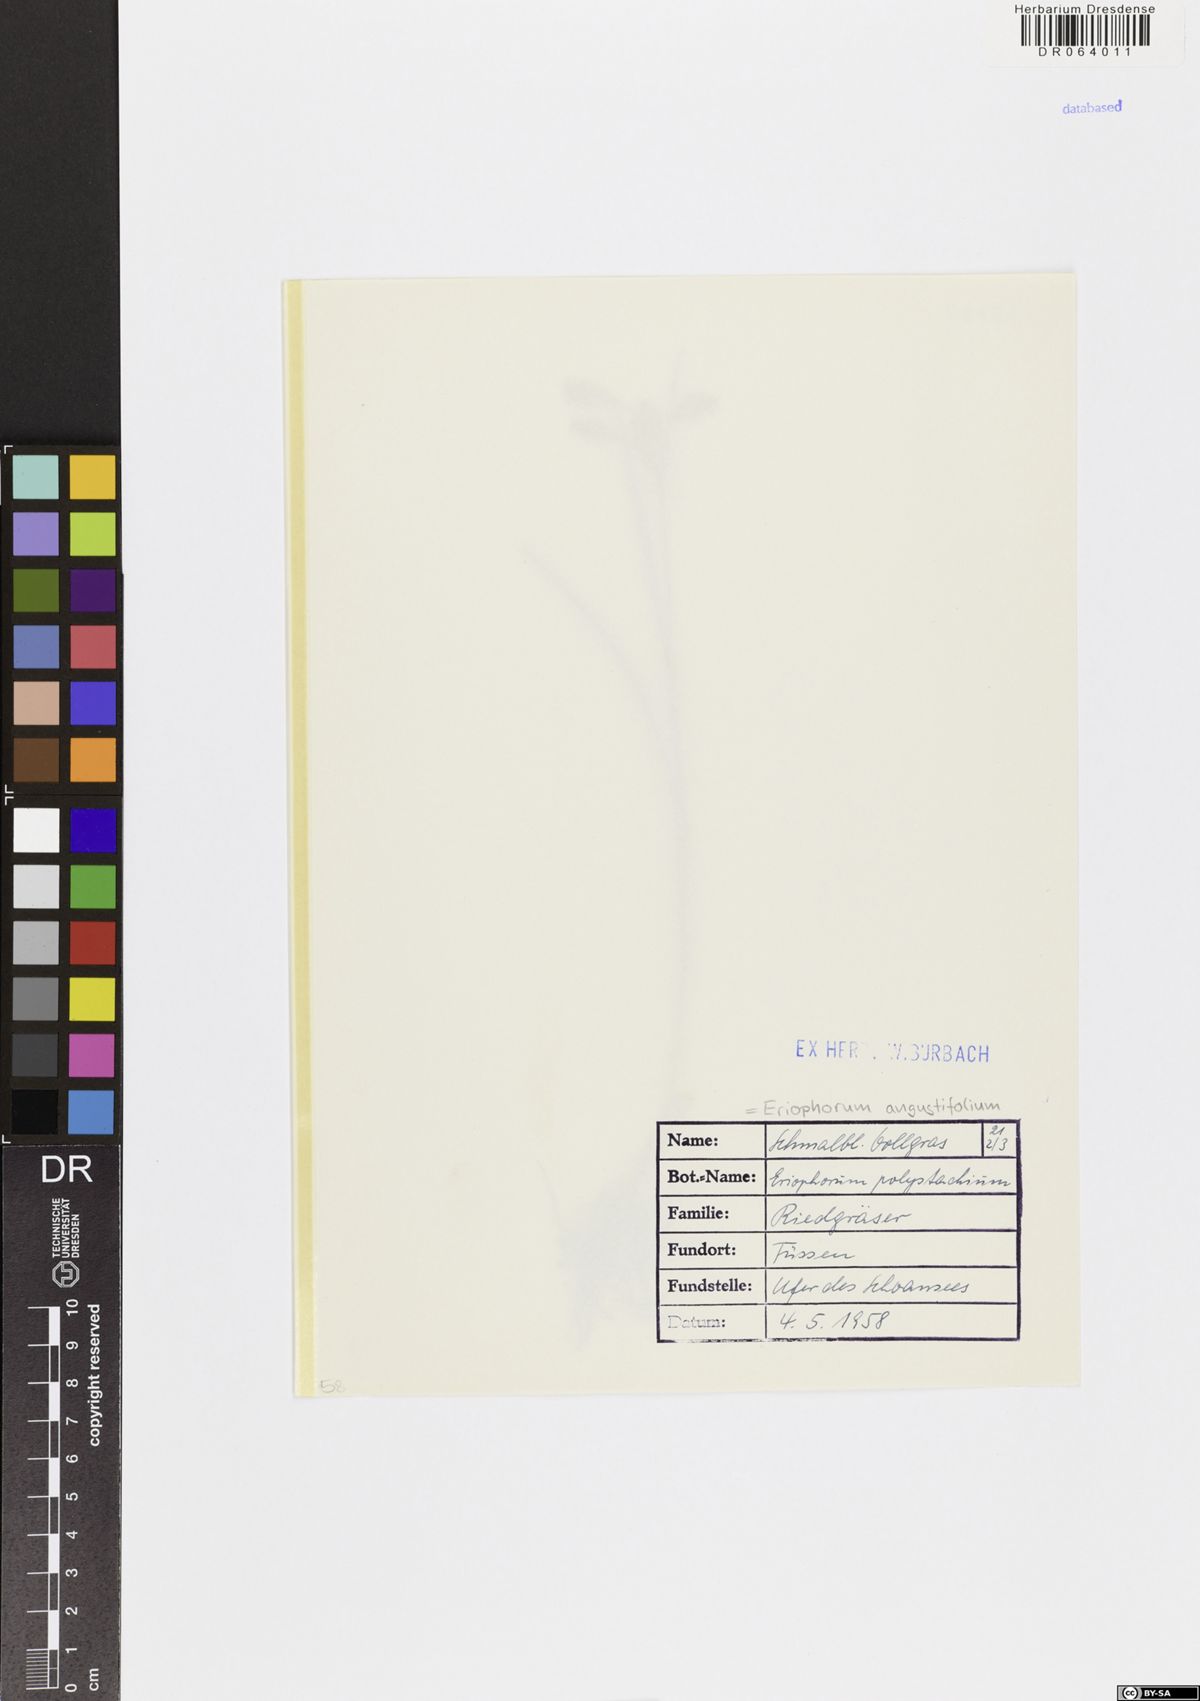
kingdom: Plantae
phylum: Tracheophyta
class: Liliopsida
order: Poales
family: Cyperaceae
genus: Eriophorum
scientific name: Eriophorum angustifolium
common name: Common cottongrass
